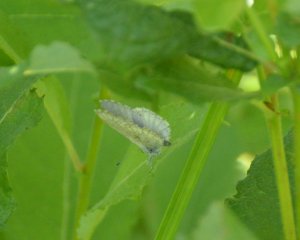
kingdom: Animalia
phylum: Arthropoda
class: Insecta
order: Lepidoptera
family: Lycaenidae
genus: Celastrina
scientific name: Celastrina lucia
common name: Northern Spring Azure
